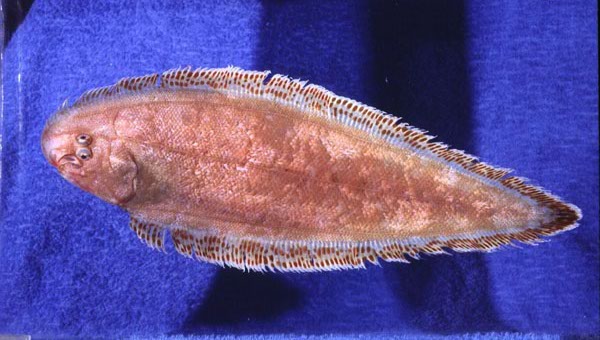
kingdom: Animalia
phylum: Chordata
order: Pleuronectiformes
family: Cynoglossidae
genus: Cynoglossus
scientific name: Cynoglossus zanzibarensis
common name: Redspotted tonguesole
